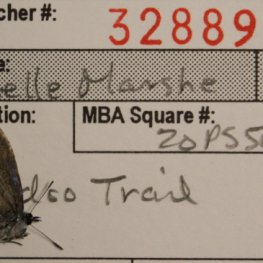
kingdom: Animalia
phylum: Arthropoda
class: Insecta
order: Lepidoptera
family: Lycaenidae
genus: Celastrina
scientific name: Celastrina lucia
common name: Northern Spring Azure
